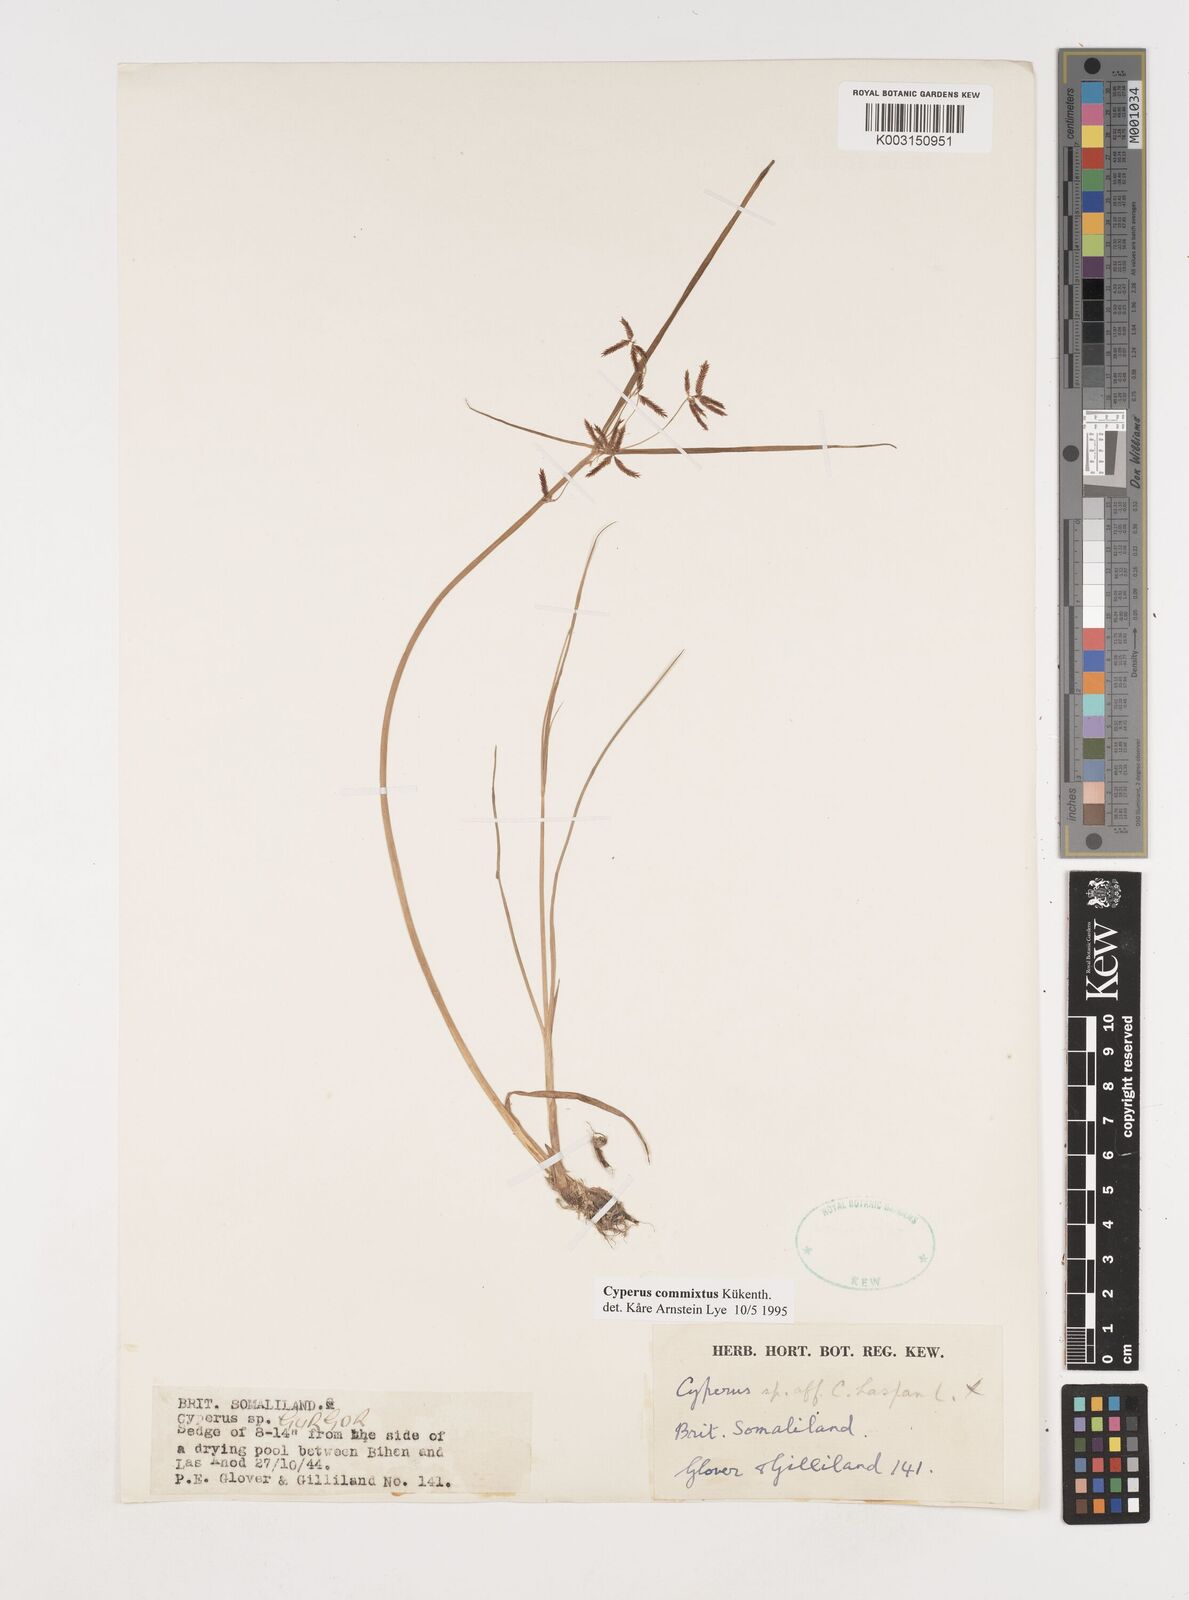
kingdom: Plantae
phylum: Tracheophyta
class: Liliopsida
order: Poales
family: Cyperaceae
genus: Cyperus
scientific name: Cyperus commixtus
